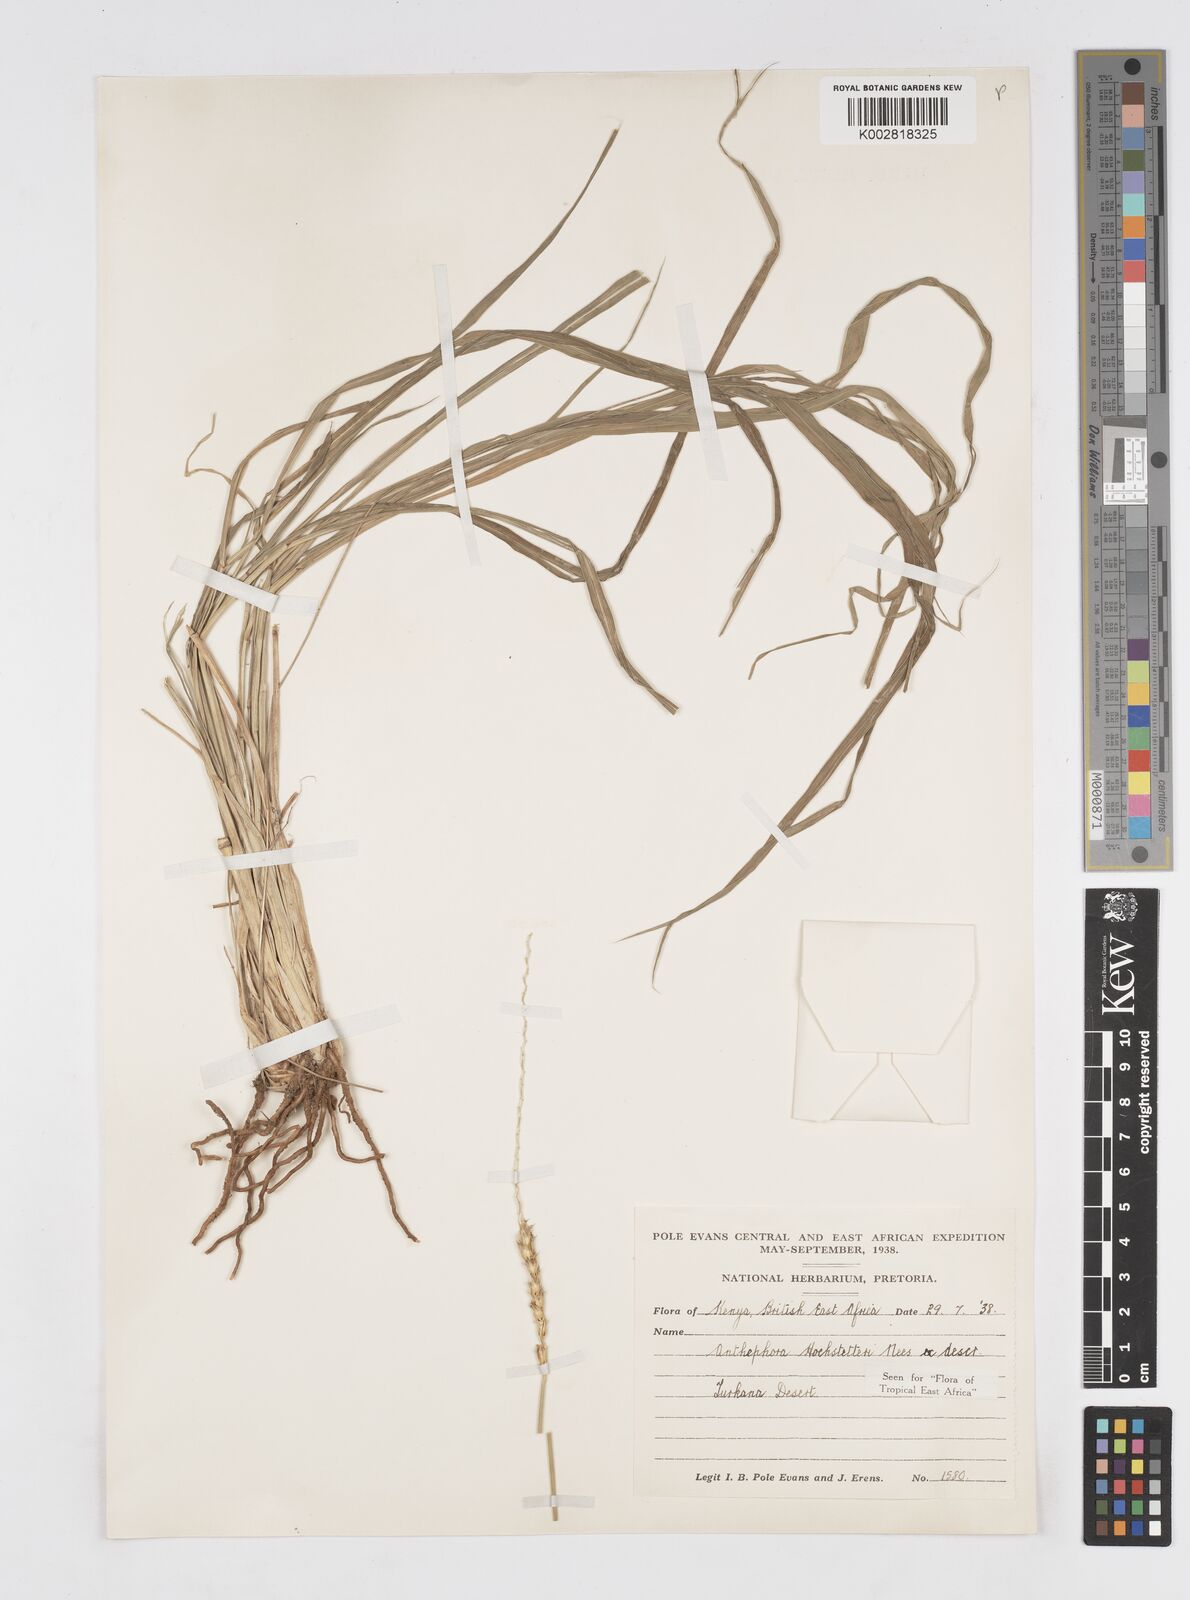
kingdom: Plantae
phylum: Tracheophyta
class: Liliopsida
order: Poales
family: Poaceae
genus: Anthephora
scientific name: Anthephora pubescens
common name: Wool grass
